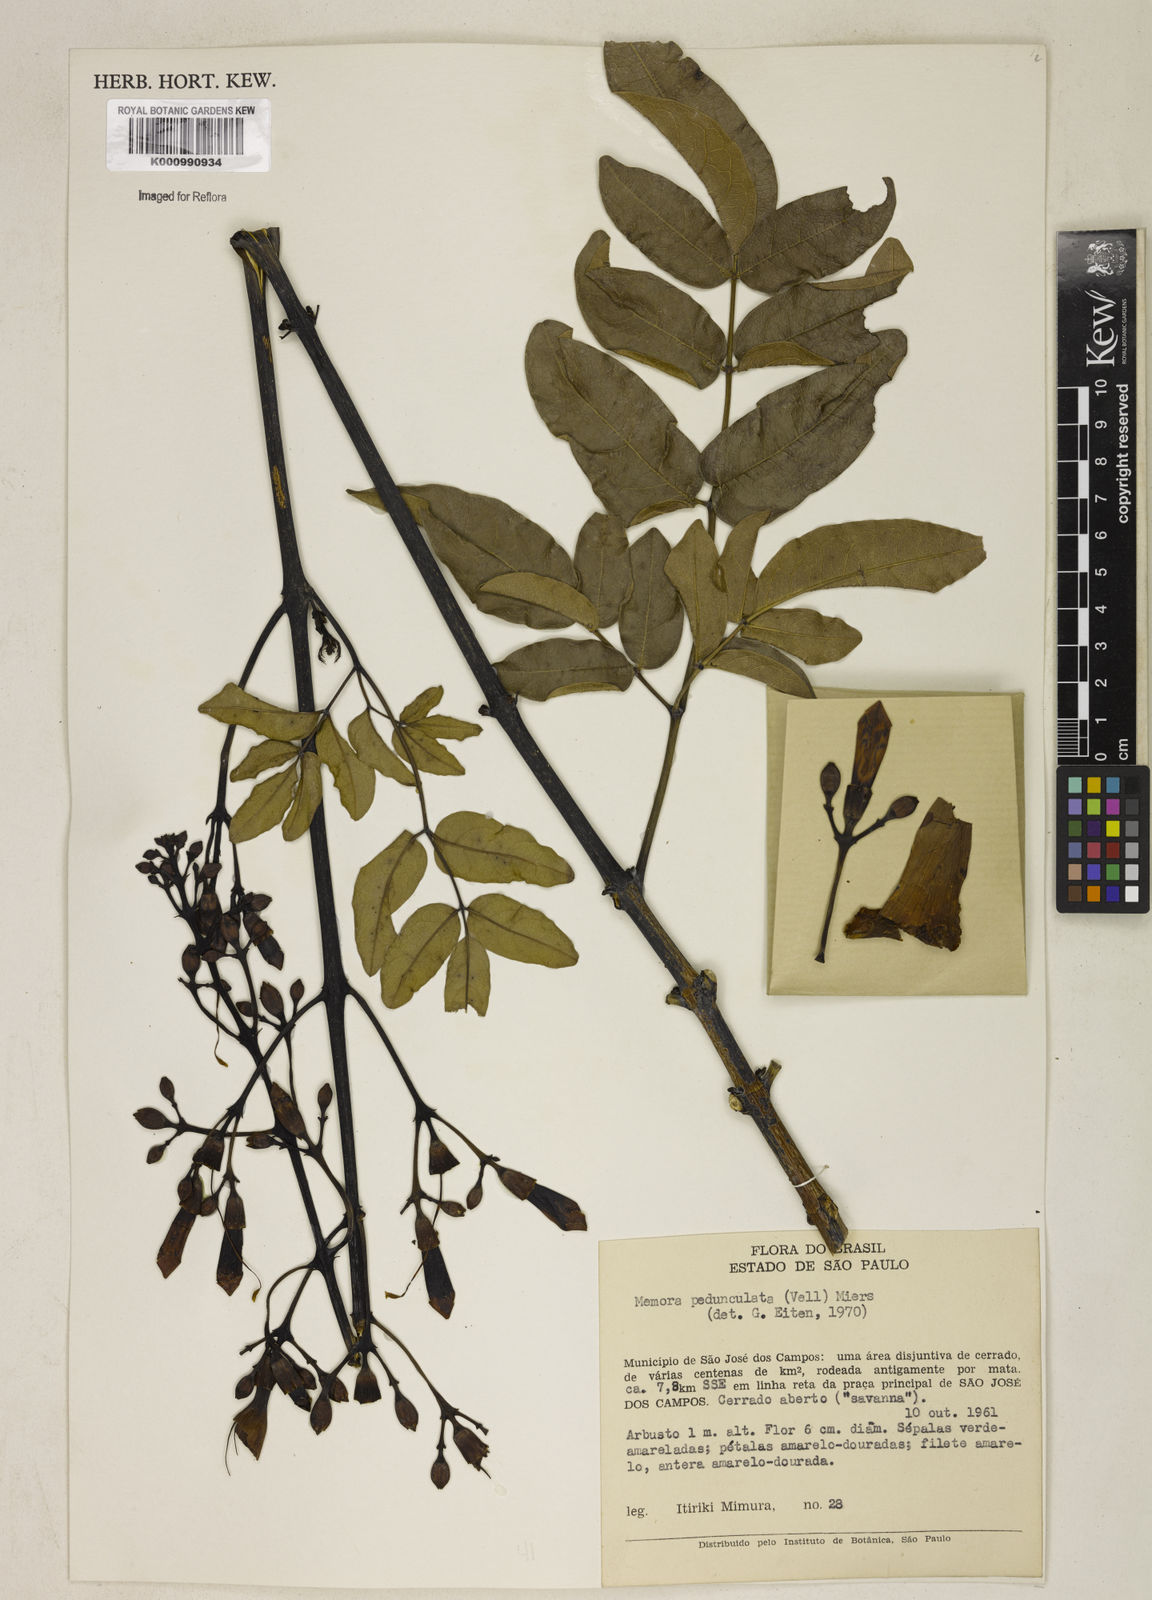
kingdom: Plantae
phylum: Tracheophyta
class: Magnoliopsida
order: Lamiales
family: Bignoniaceae
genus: Adenocalymma
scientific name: Adenocalymma pedunculatum
